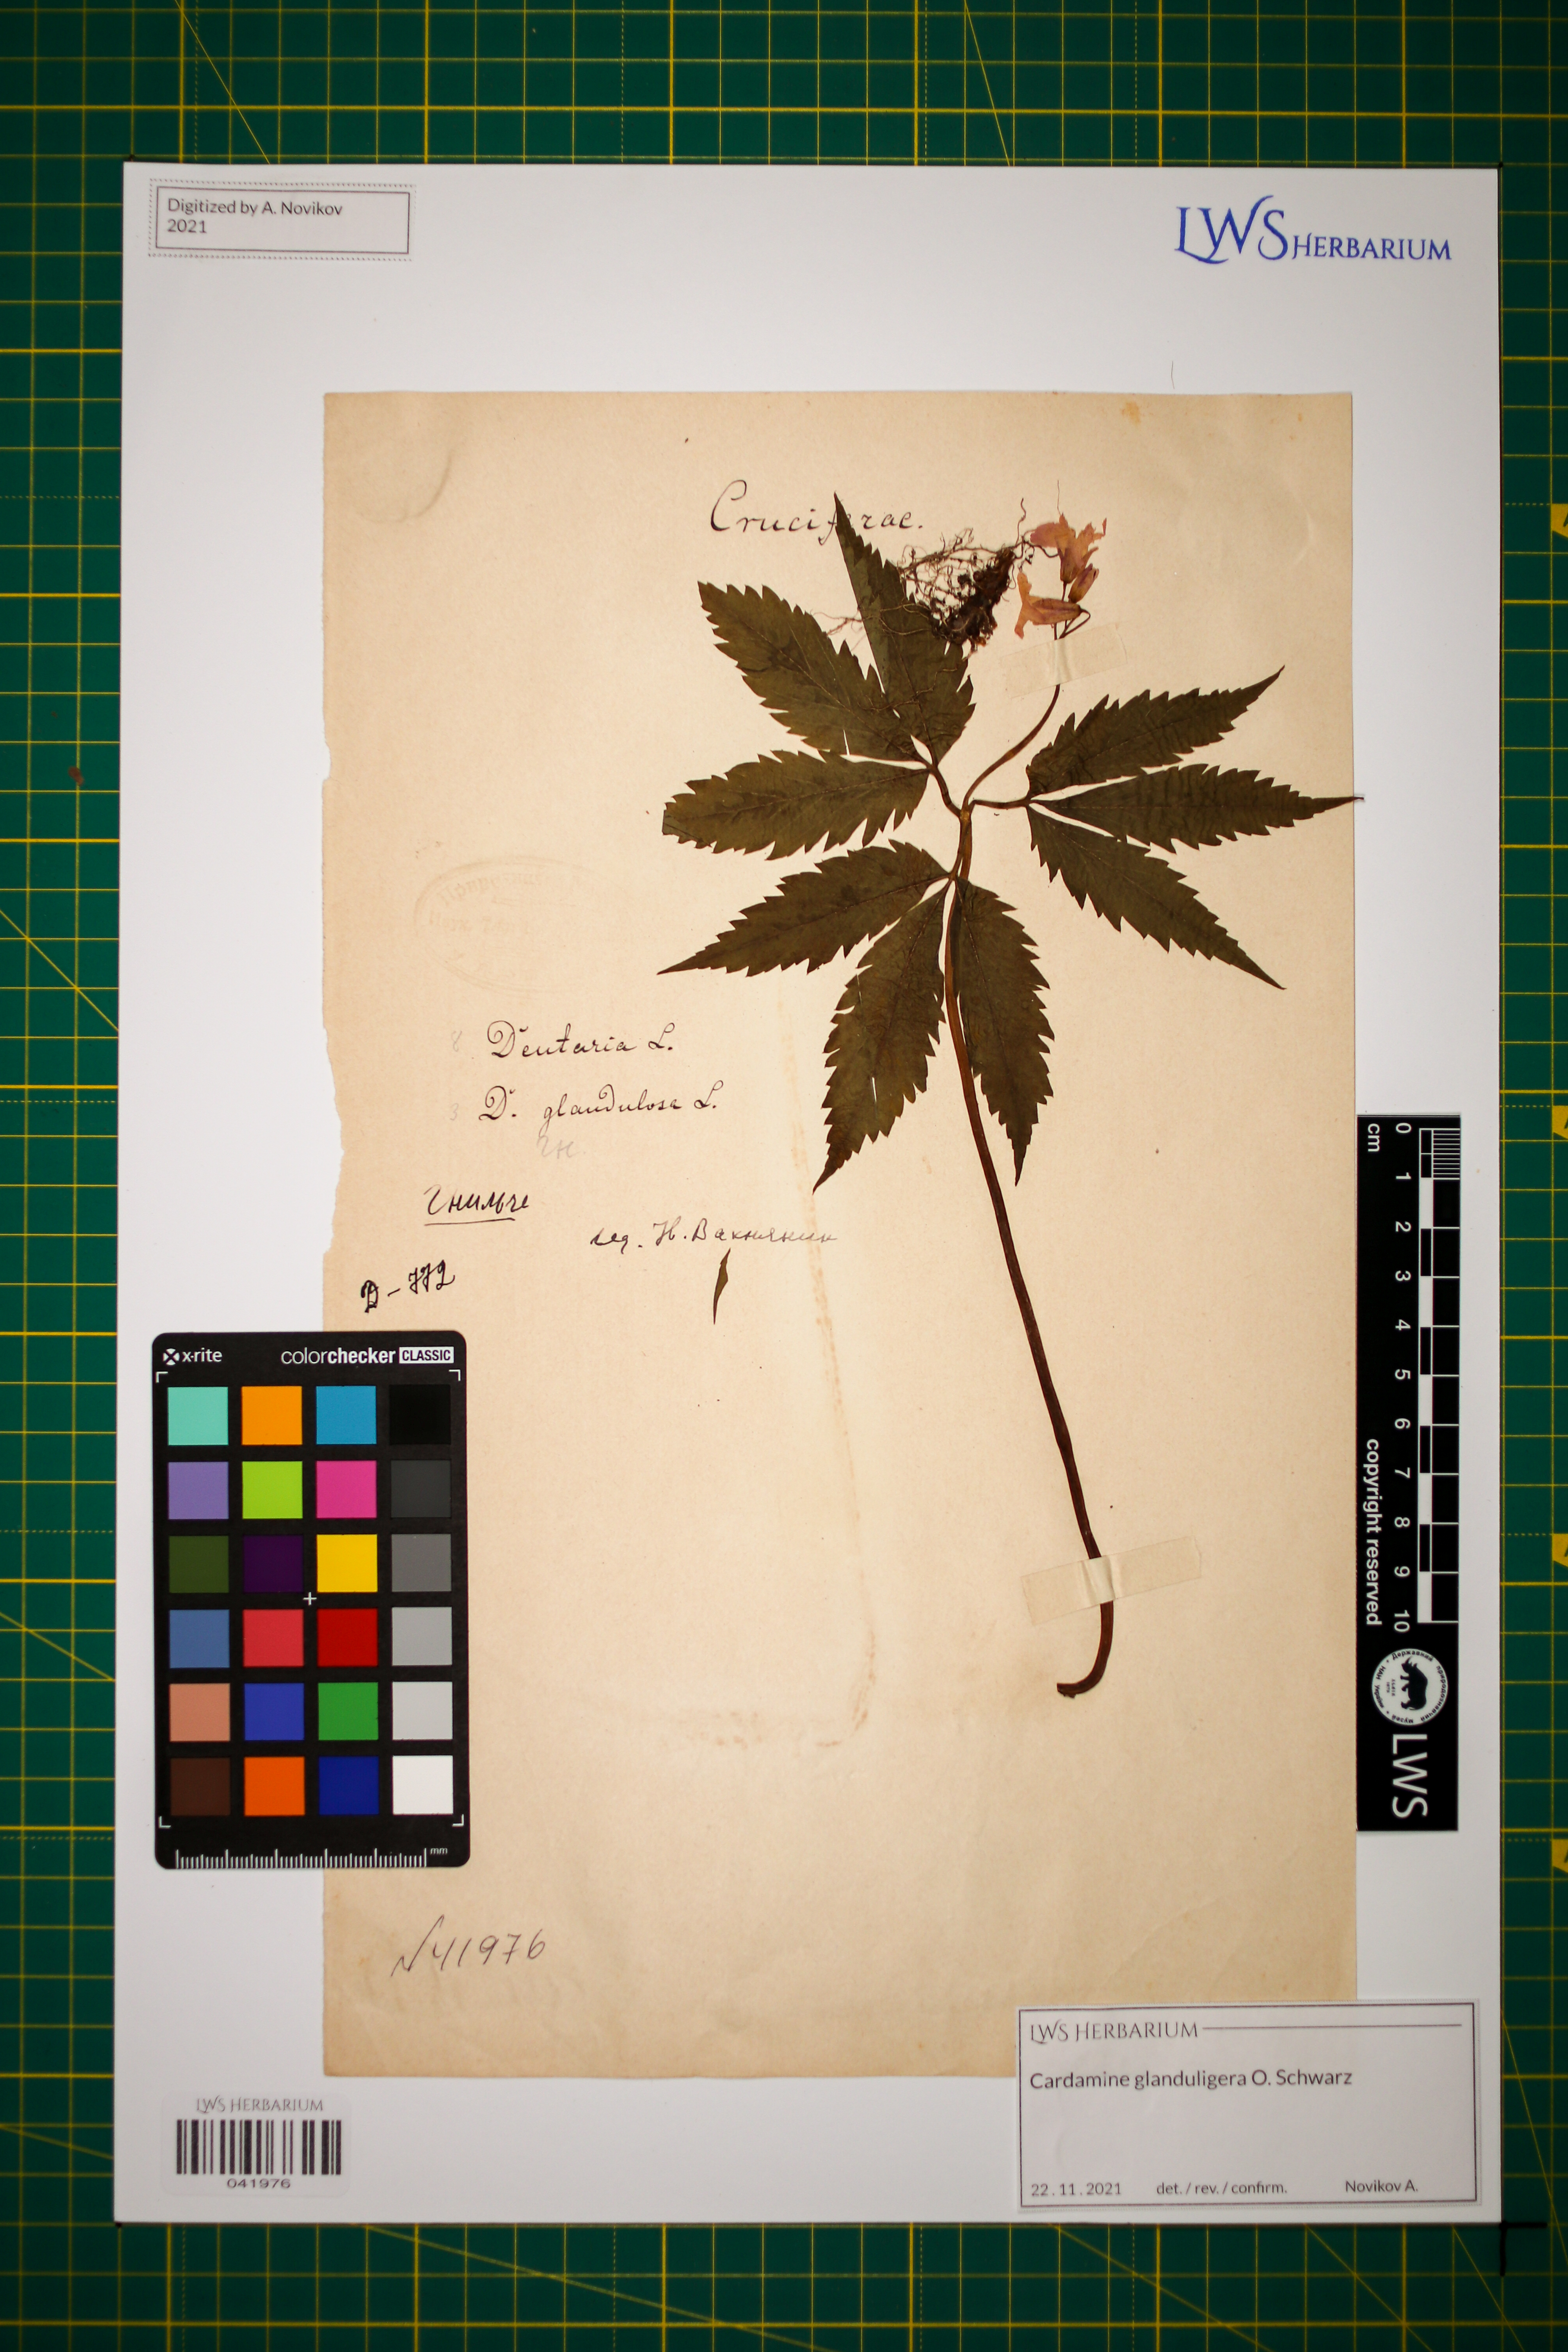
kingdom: Plantae
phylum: Tracheophyta
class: Magnoliopsida
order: Brassicales
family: Brassicaceae
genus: Cardamine
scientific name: Cardamine glanduligera
